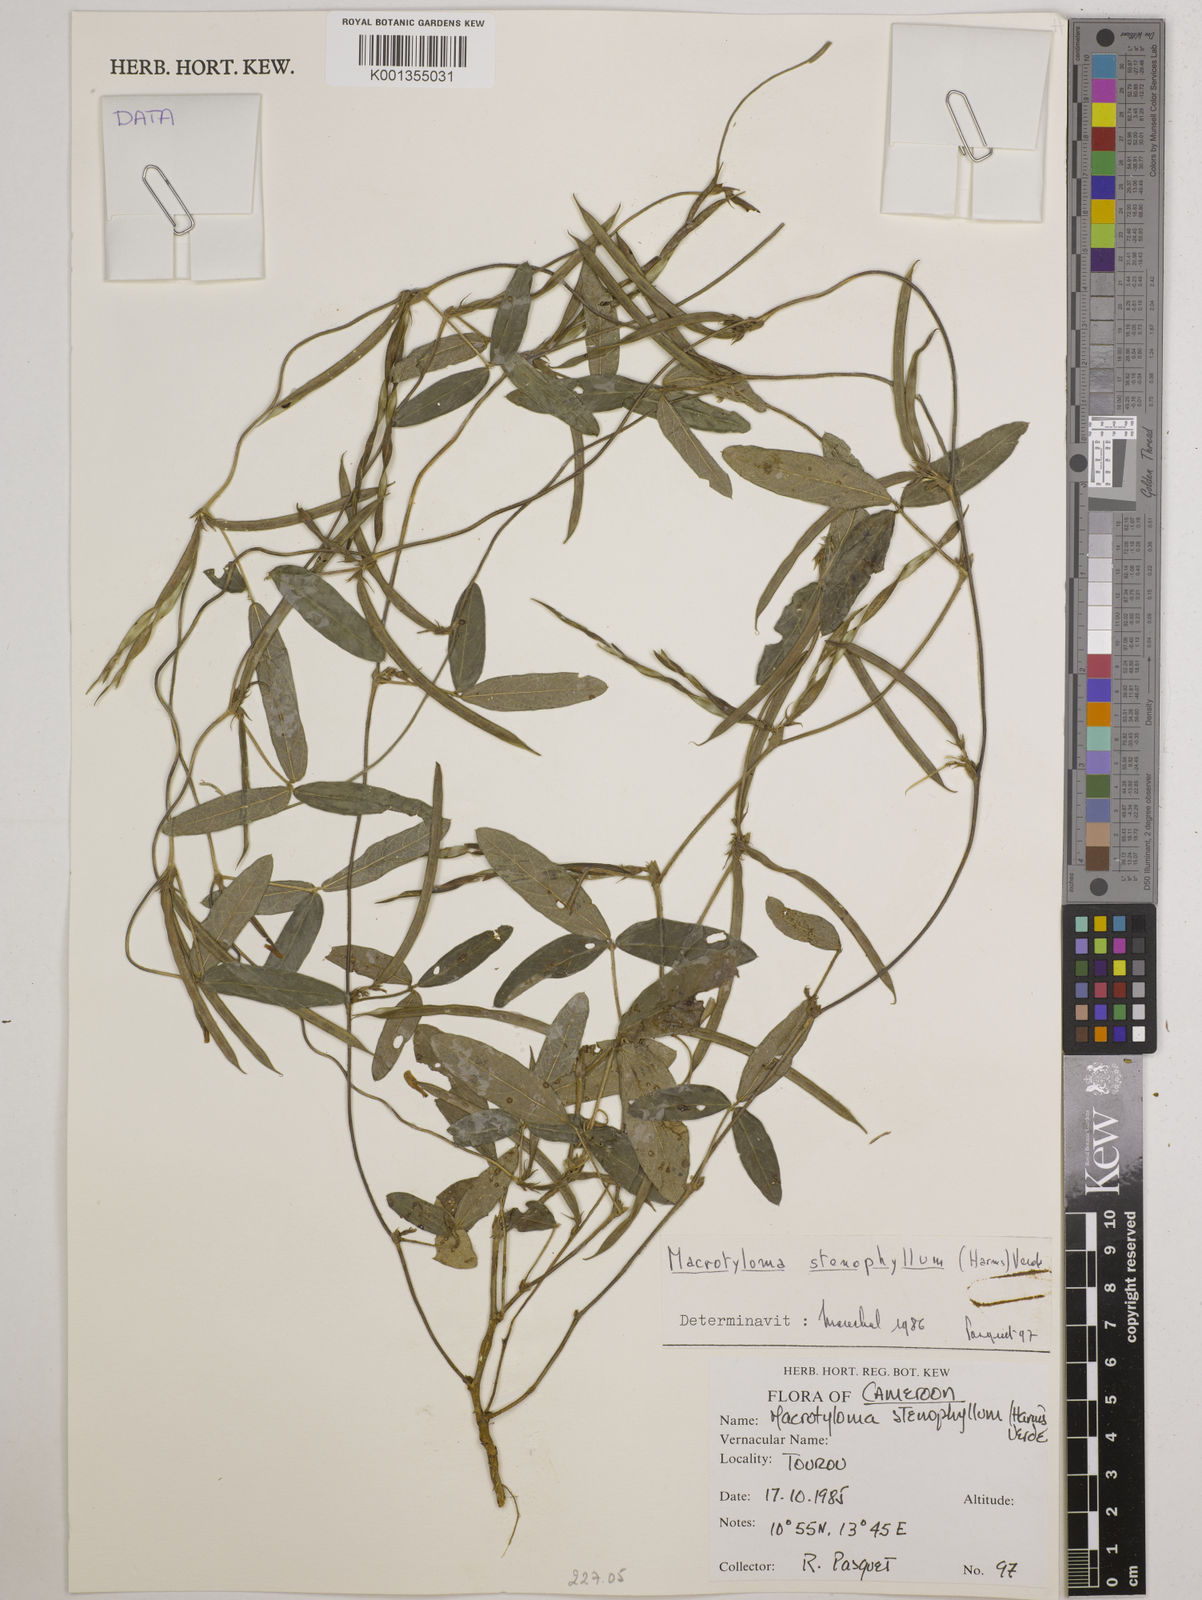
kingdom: Plantae
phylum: Tracheophyta
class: Magnoliopsida
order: Fabales
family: Fabaceae
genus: Macrotyloma
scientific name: Macrotyloma stenophyllum
